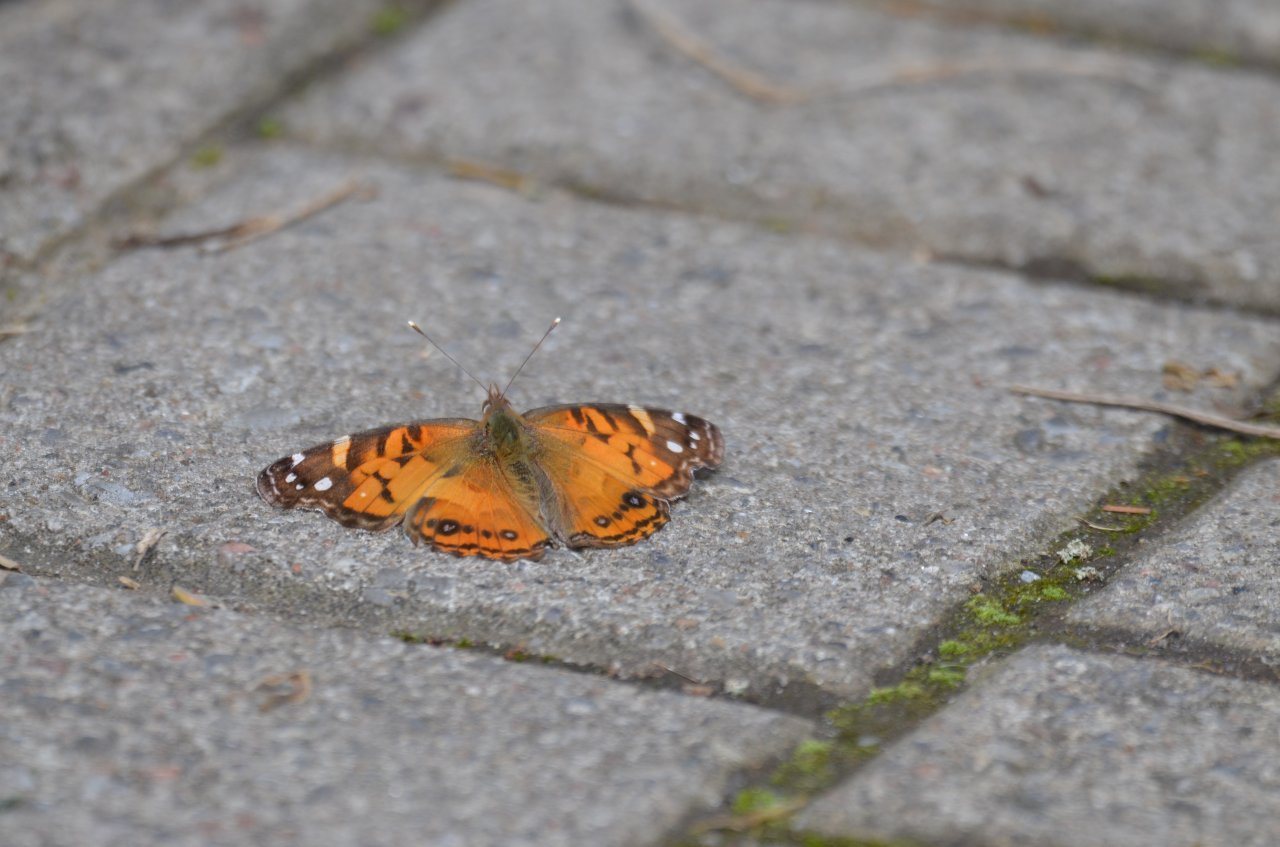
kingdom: Animalia
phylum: Arthropoda
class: Insecta
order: Lepidoptera
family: Nymphalidae
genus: Vanessa
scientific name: Vanessa virginiensis
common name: American Lady
